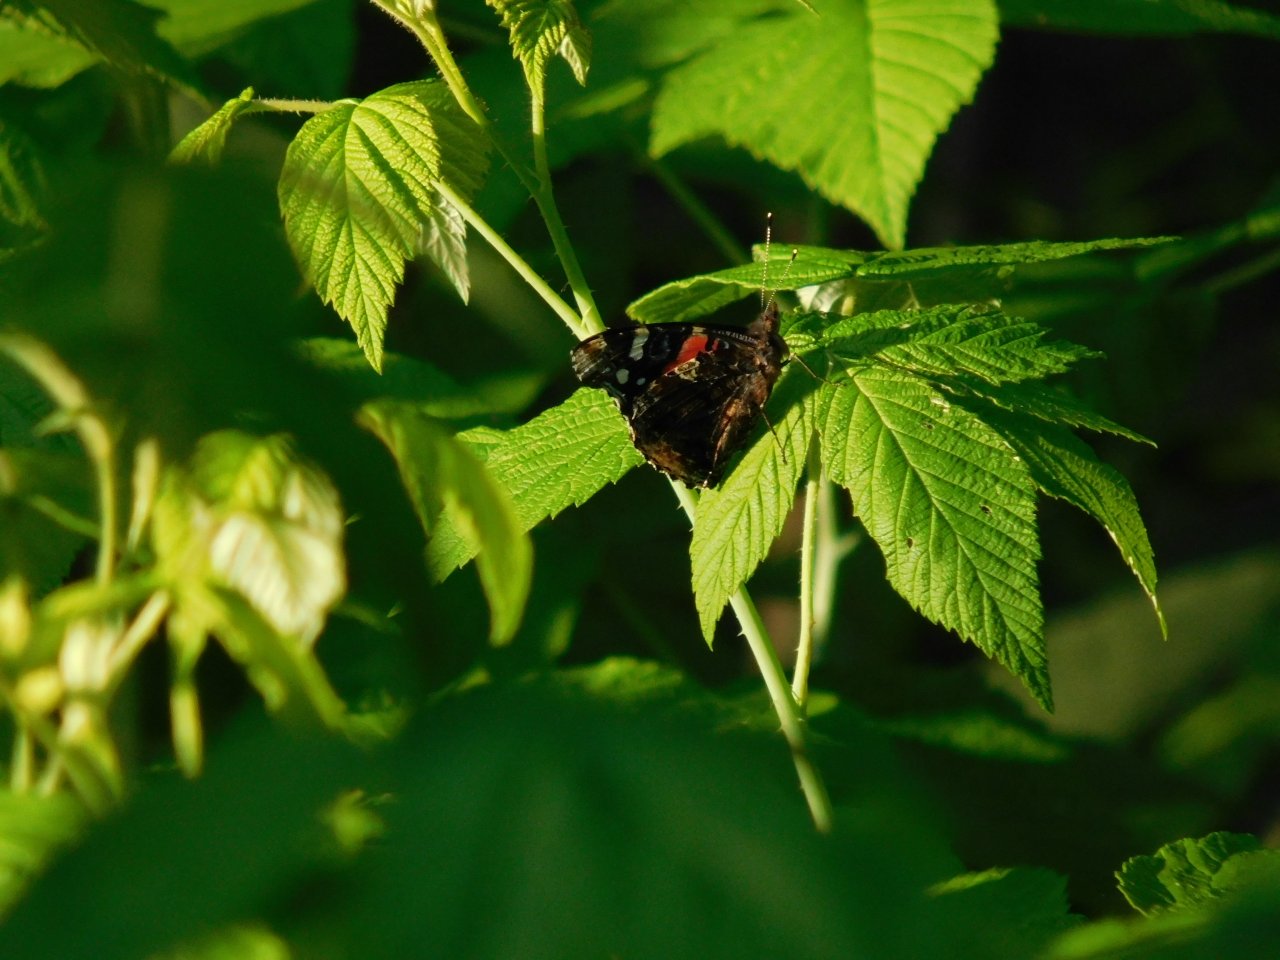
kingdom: Animalia
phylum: Arthropoda
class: Insecta
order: Lepidoptera
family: Nymphalidae
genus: Vanessa
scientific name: Vanessa atalanta
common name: Red Admiral
